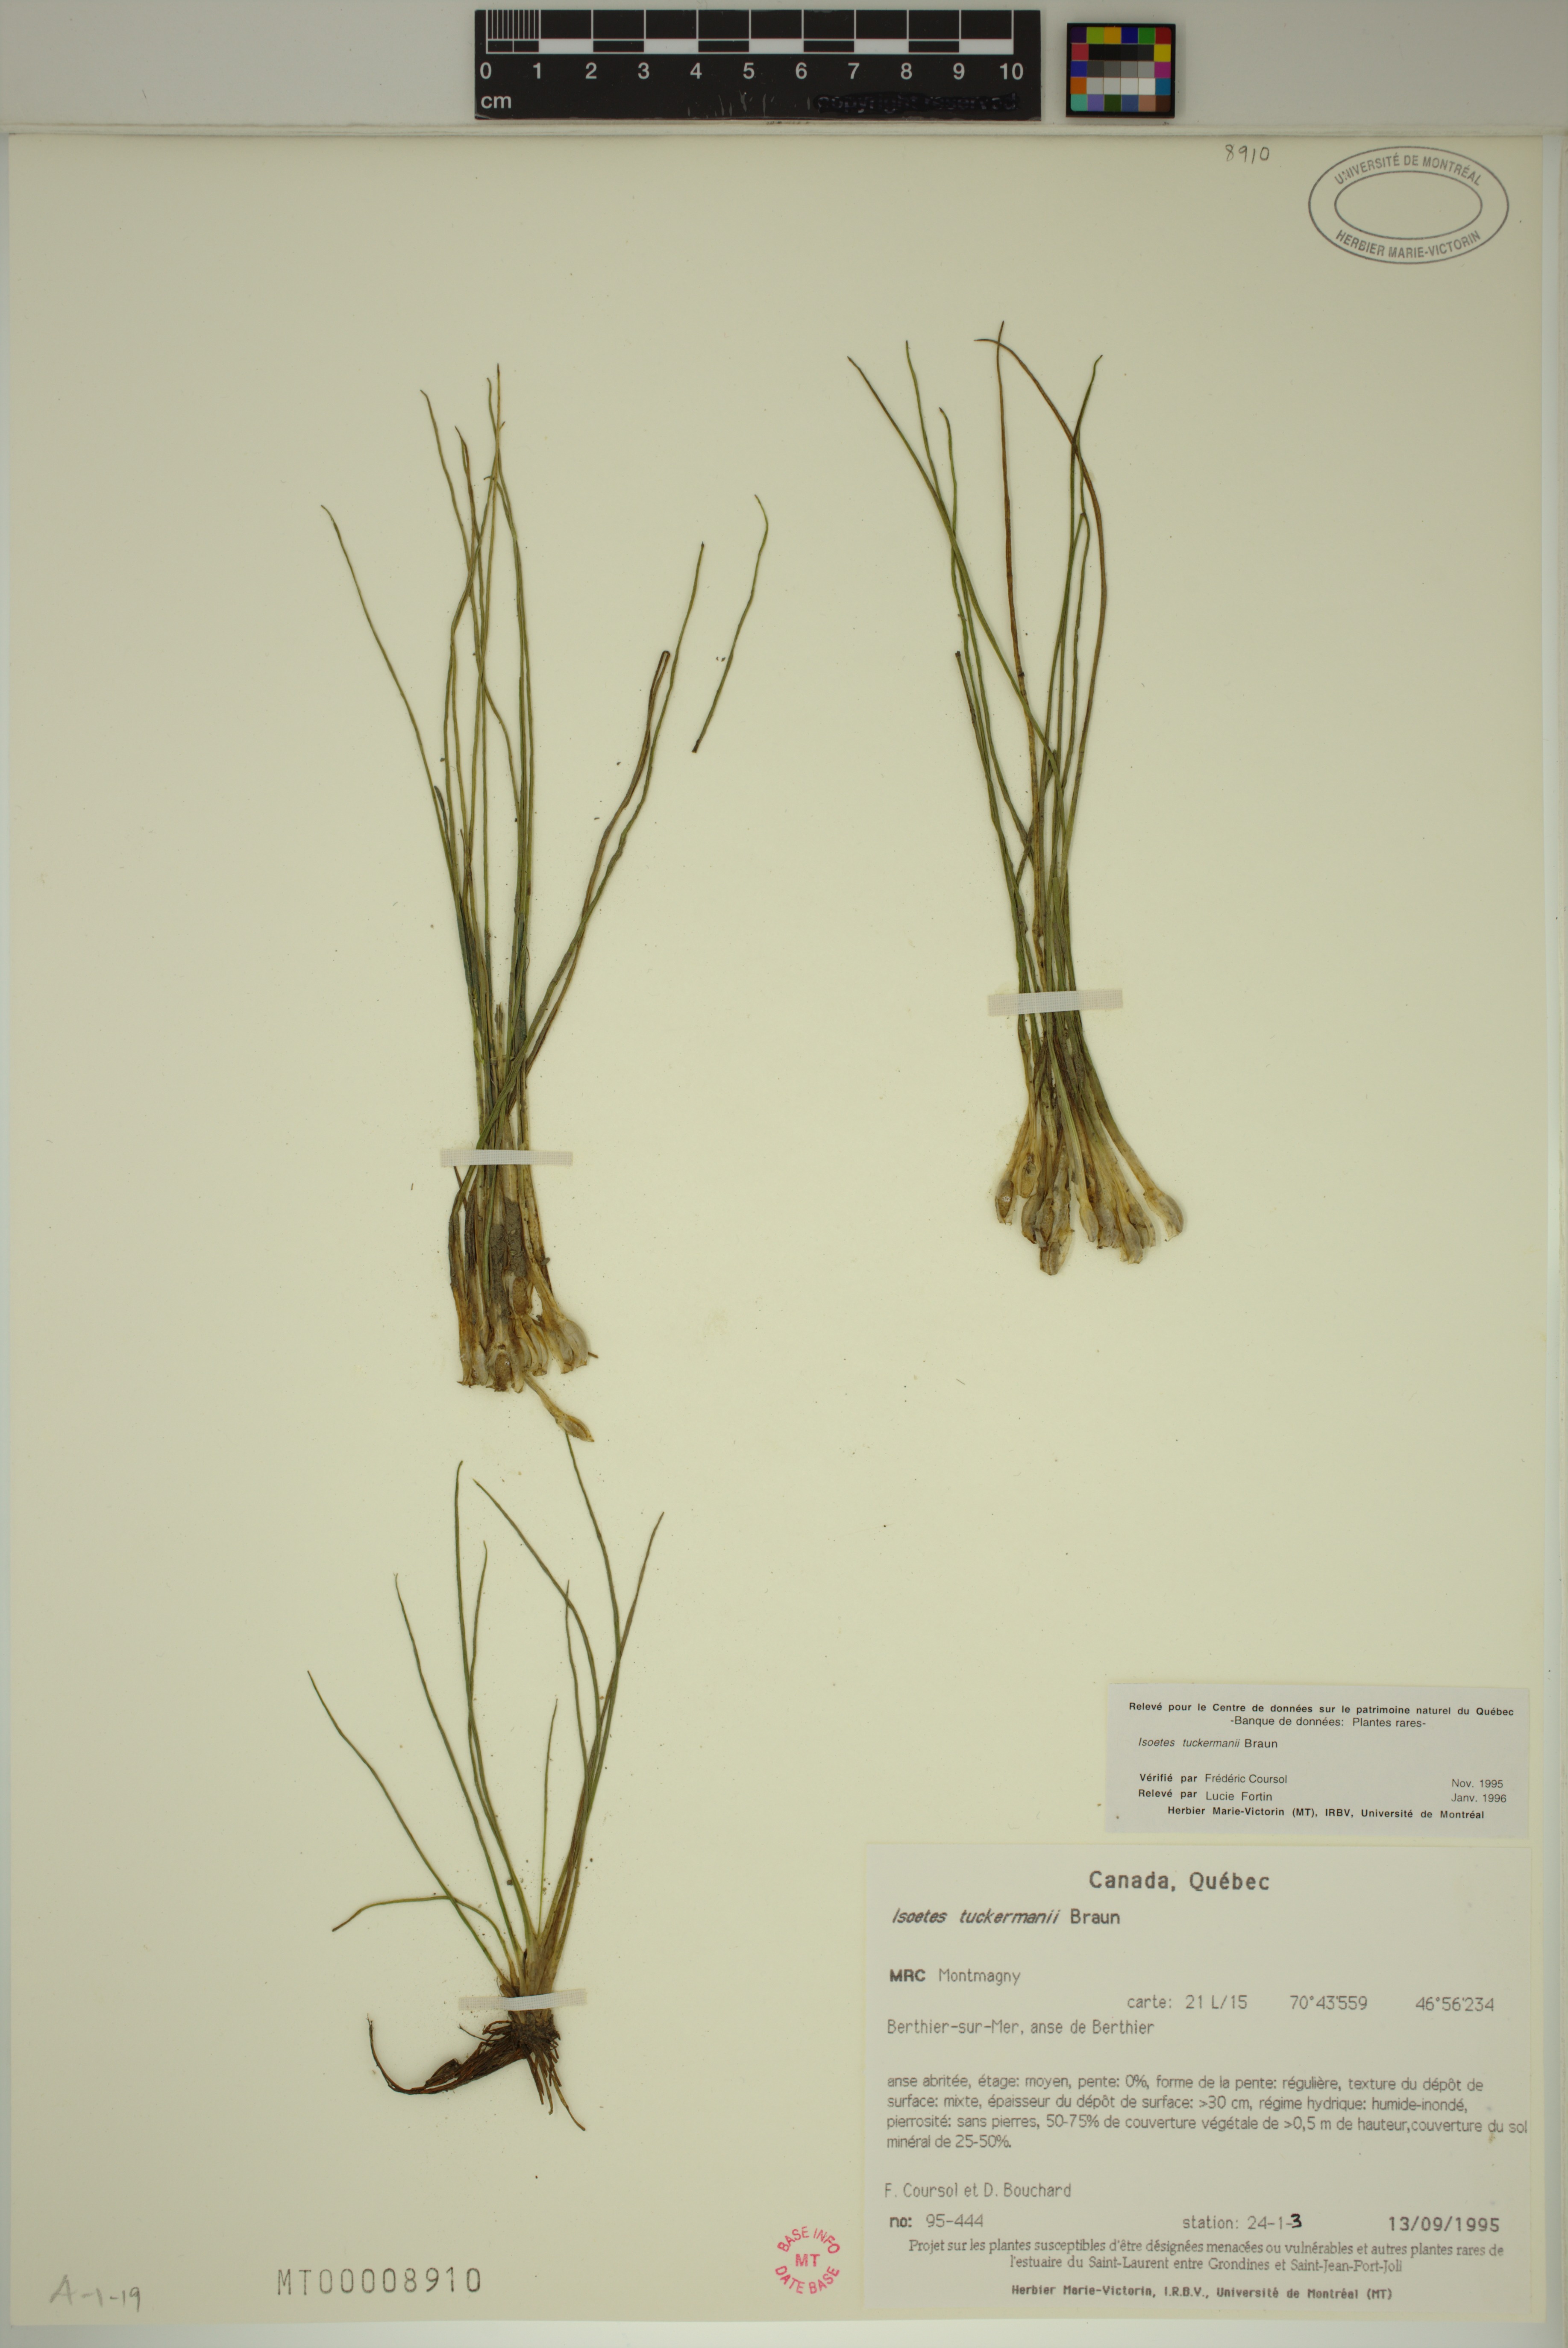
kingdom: Plantae
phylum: Tracheophyta
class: Lycopodiopsida
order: Isoetales
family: Isoetaceae
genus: Isoetes
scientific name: Isoetes laurentiana
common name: St. lawrence quillwort
